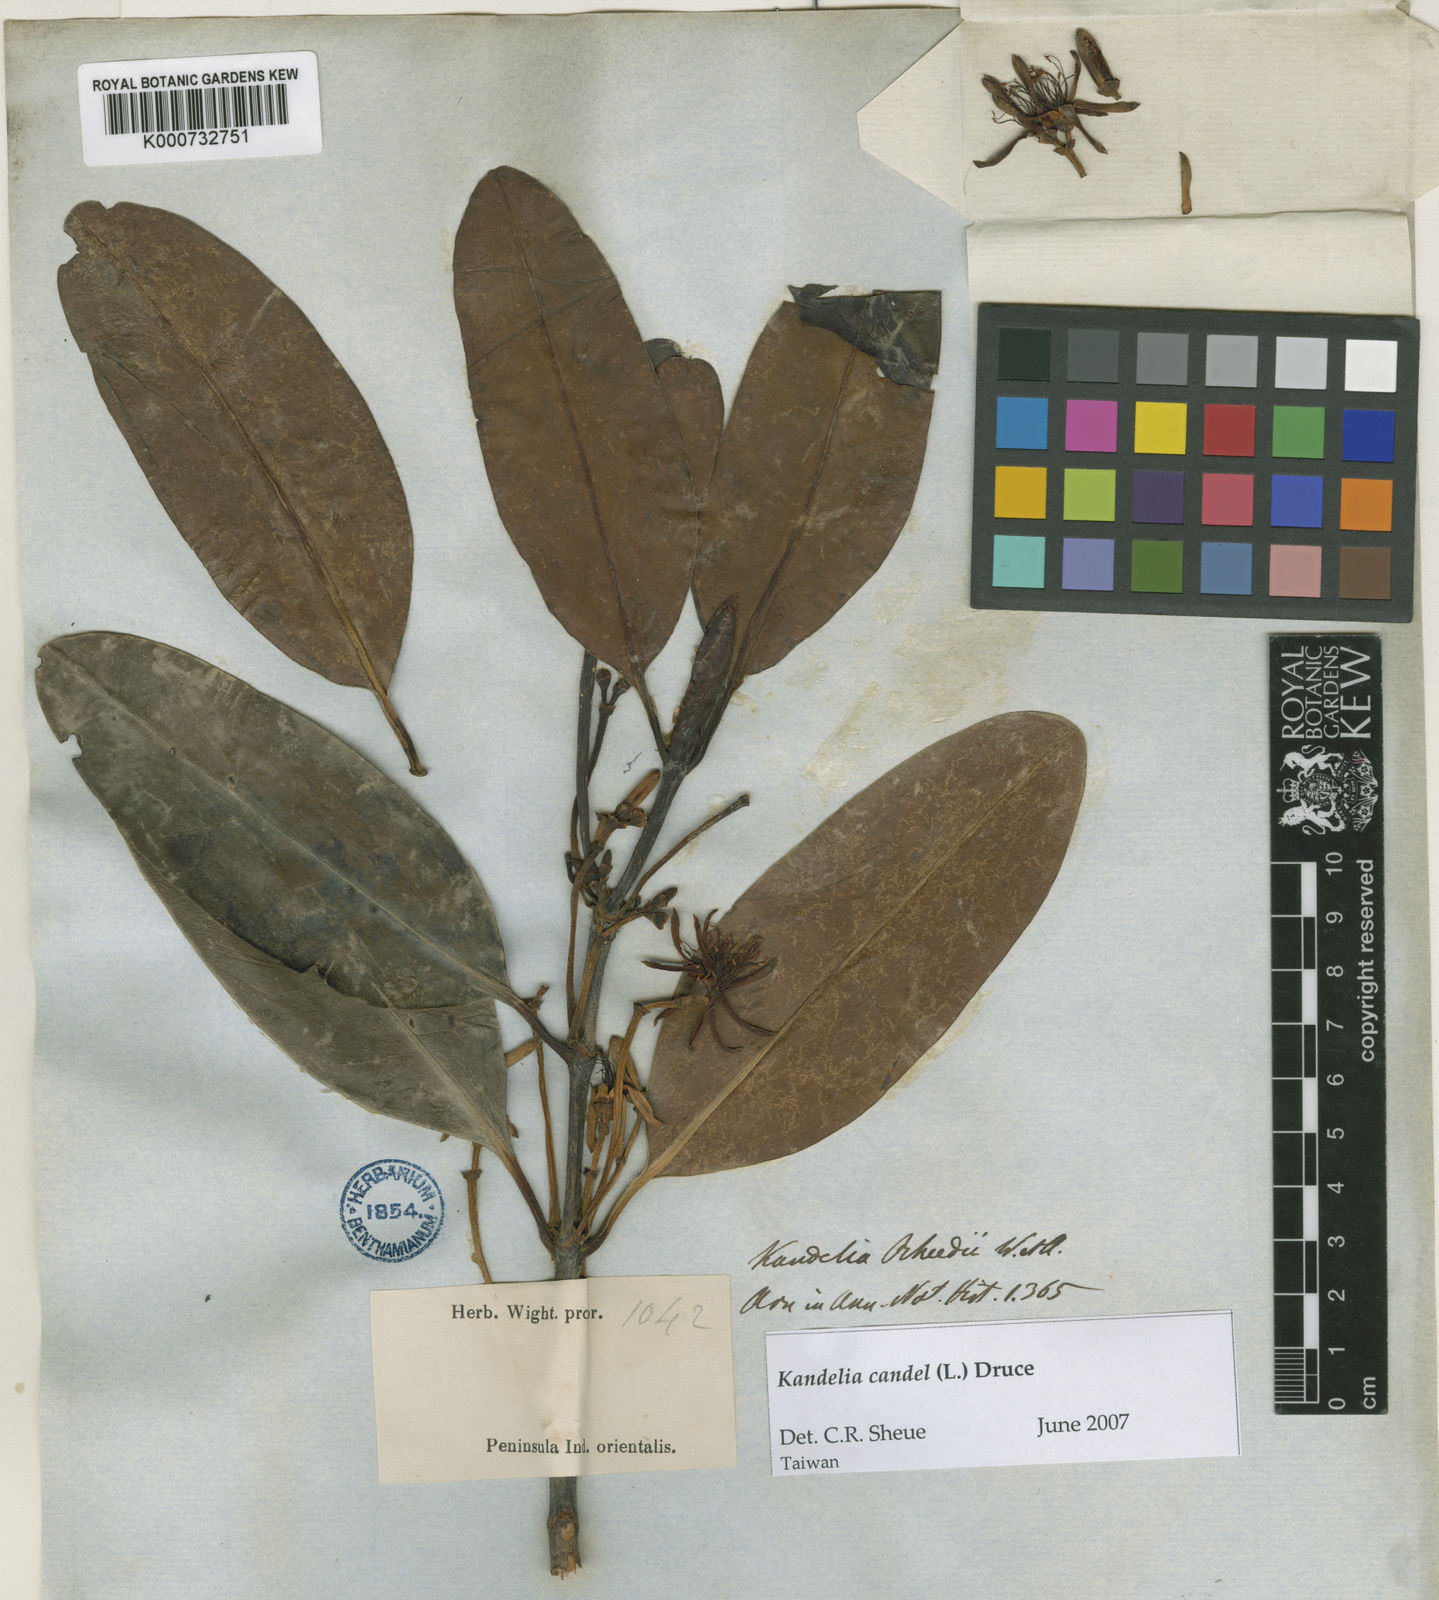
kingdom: Plantae
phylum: Tracheophyta
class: Magnoliopsida
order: Malpighiales
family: Rhizophoraceae
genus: Kandelia
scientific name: Kandelia candel
